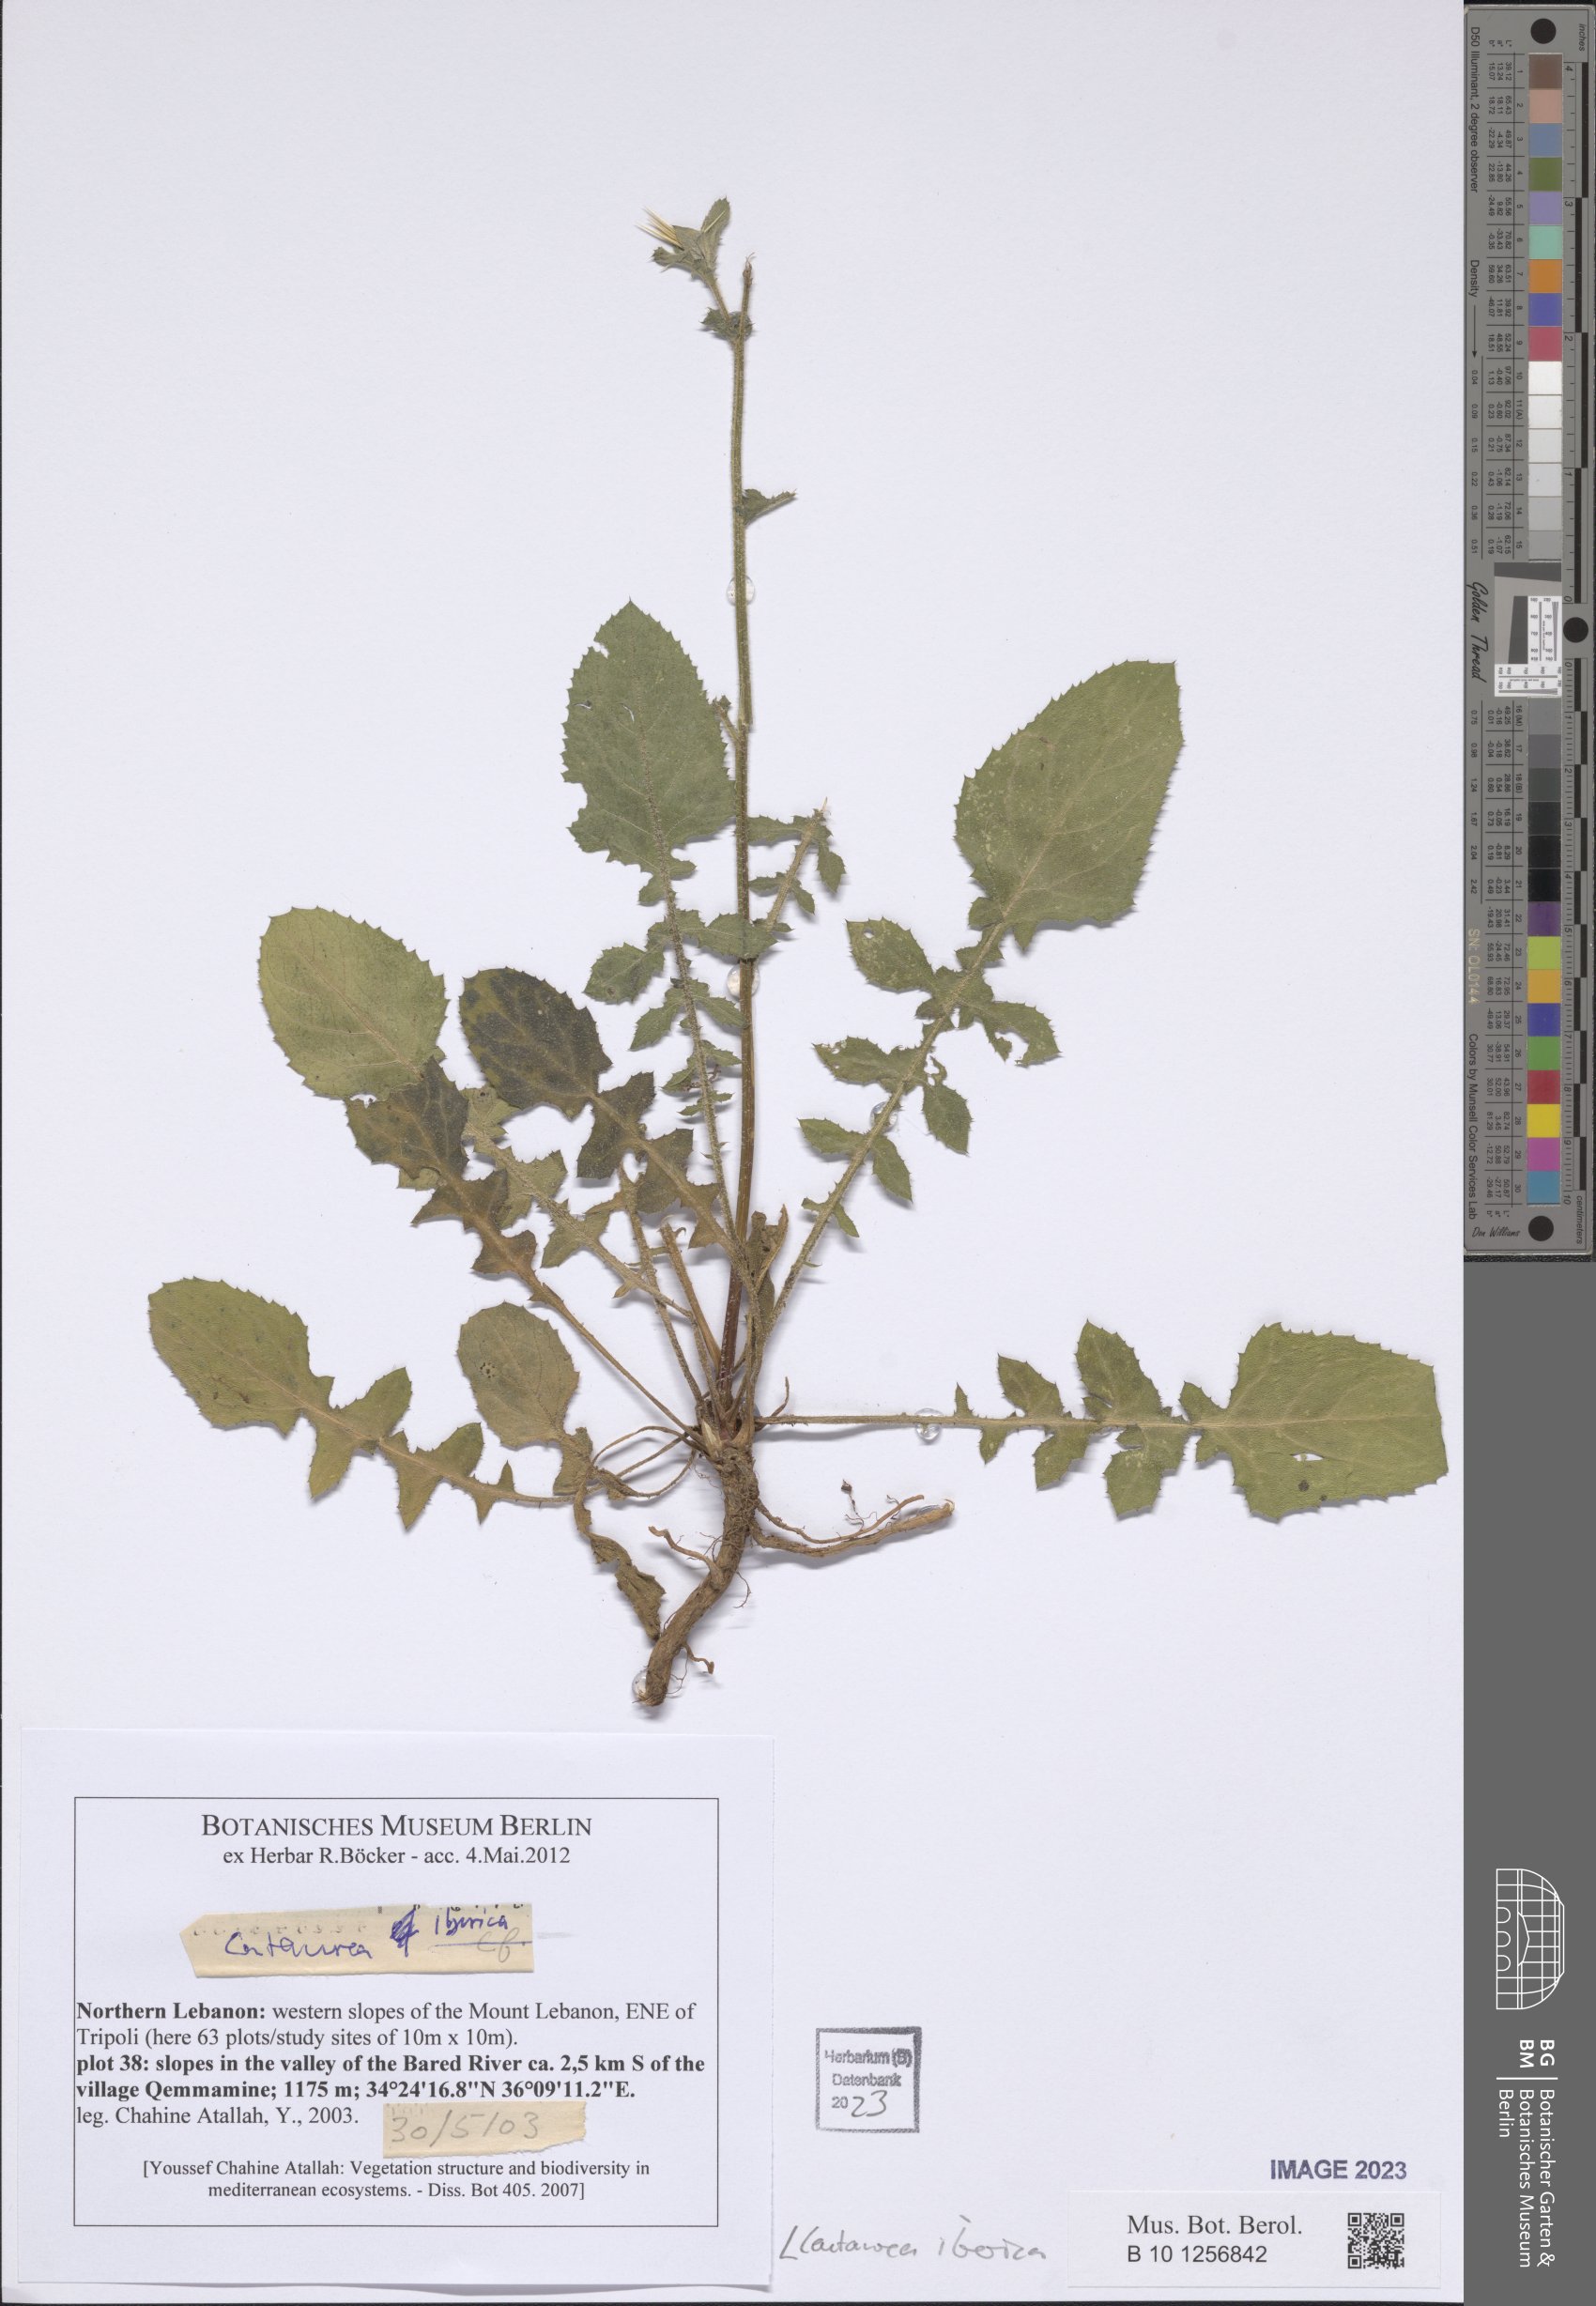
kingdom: Plantae
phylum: Tracheophyta
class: Magnoliopsida
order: Asterales
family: Asteraceae
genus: Centaurea
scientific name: Centaurea iberica
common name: Iberian knapweed
